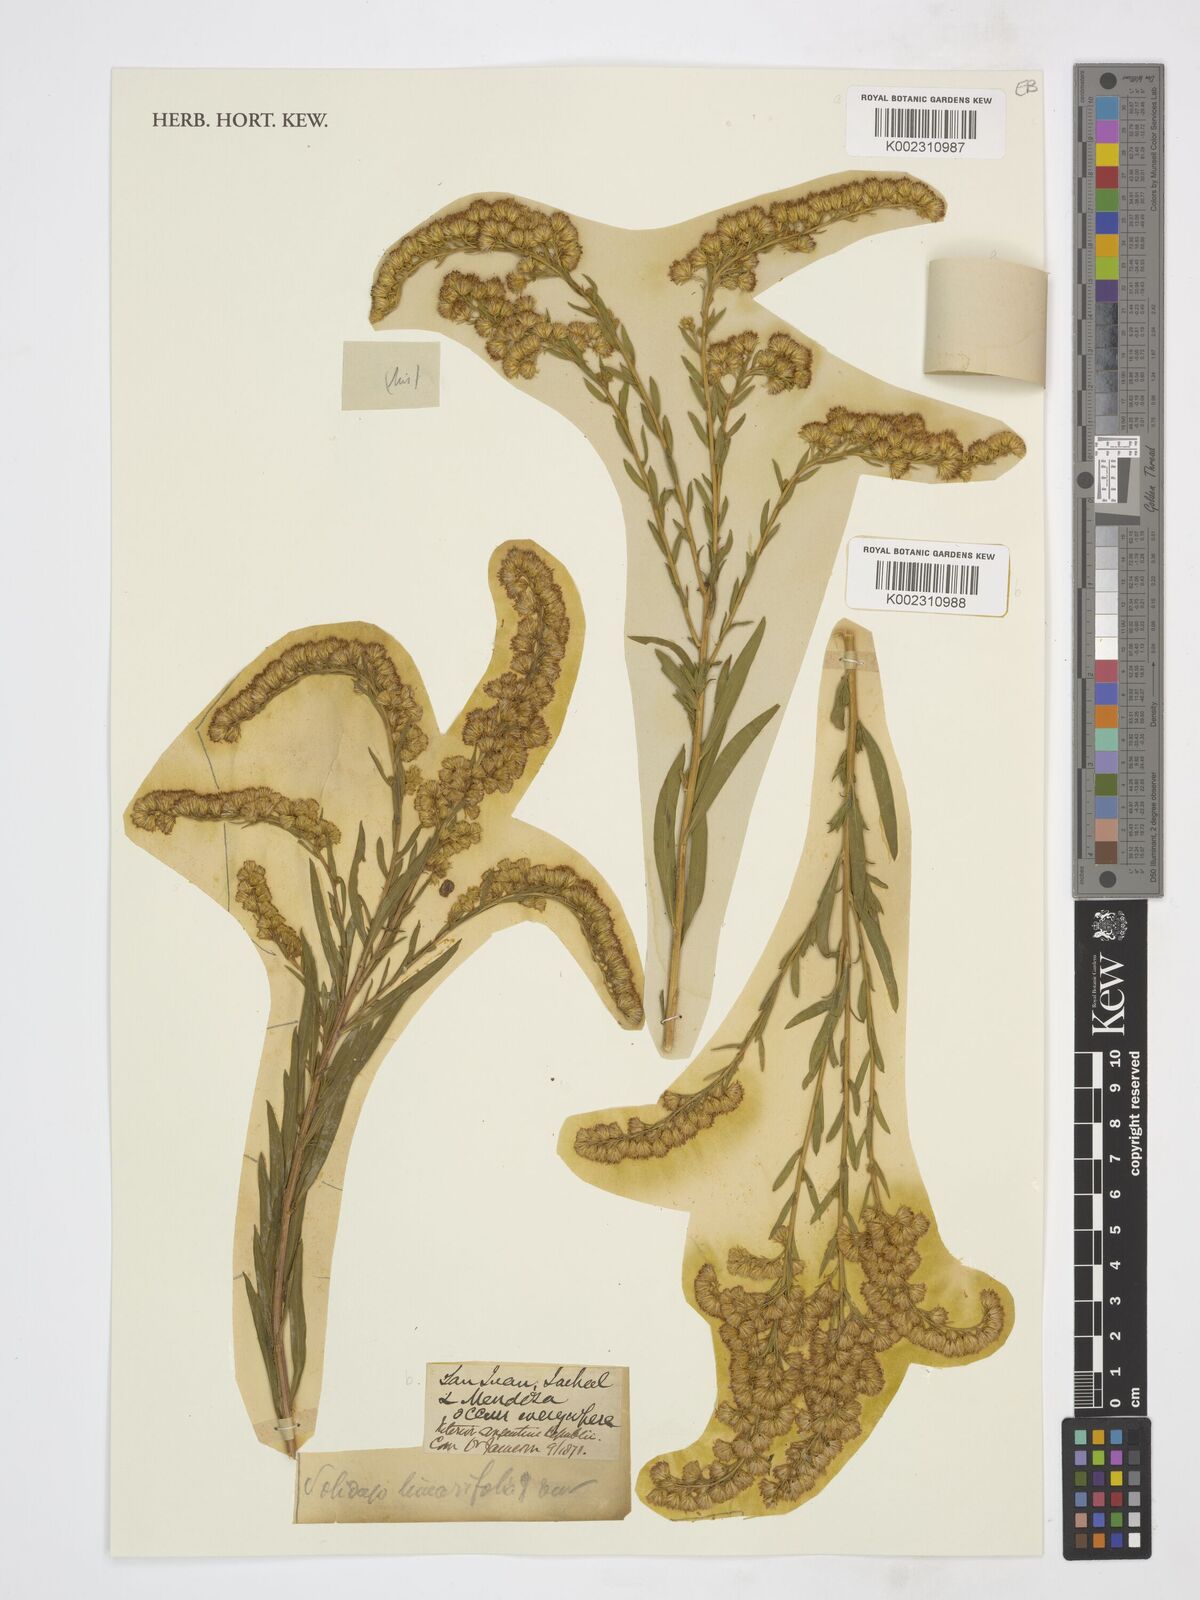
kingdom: Plantae
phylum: Tracheophyta
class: Magnoliopsida
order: Asterales
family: Asteraceae
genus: Solidago
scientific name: Solidago chilensis
